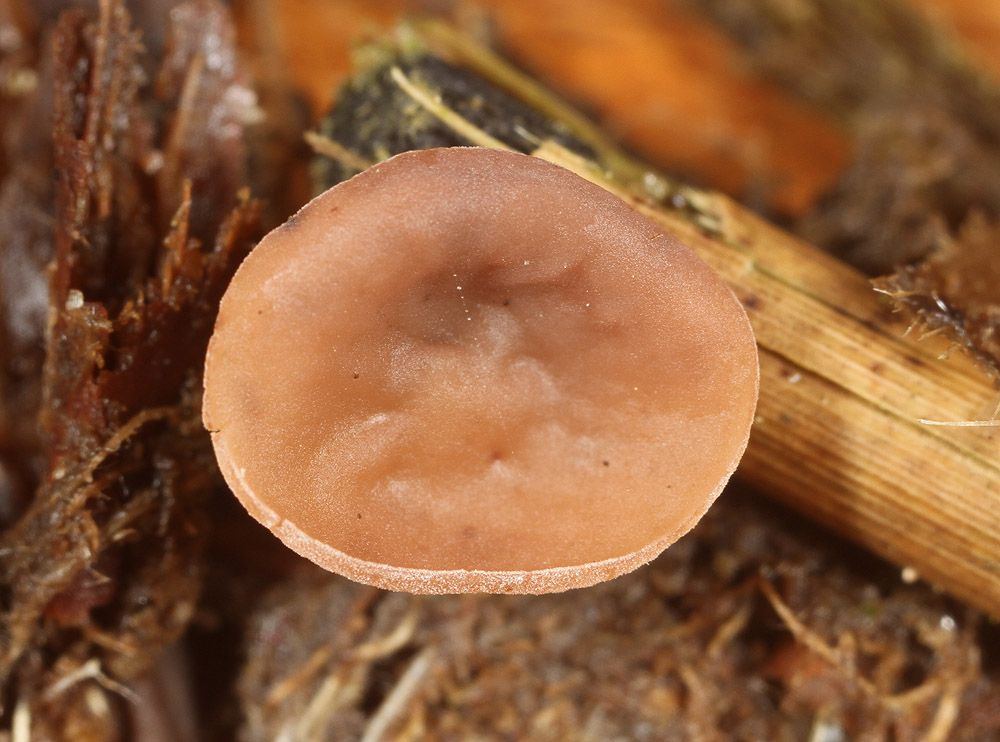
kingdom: Fungi
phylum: Ascomycota
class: Leotiomycetes
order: Helotiales
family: Sclerotiniaceae
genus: Myriosclerotinia
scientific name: Myriosclerotinia curreyana
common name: siv-knoldskive
